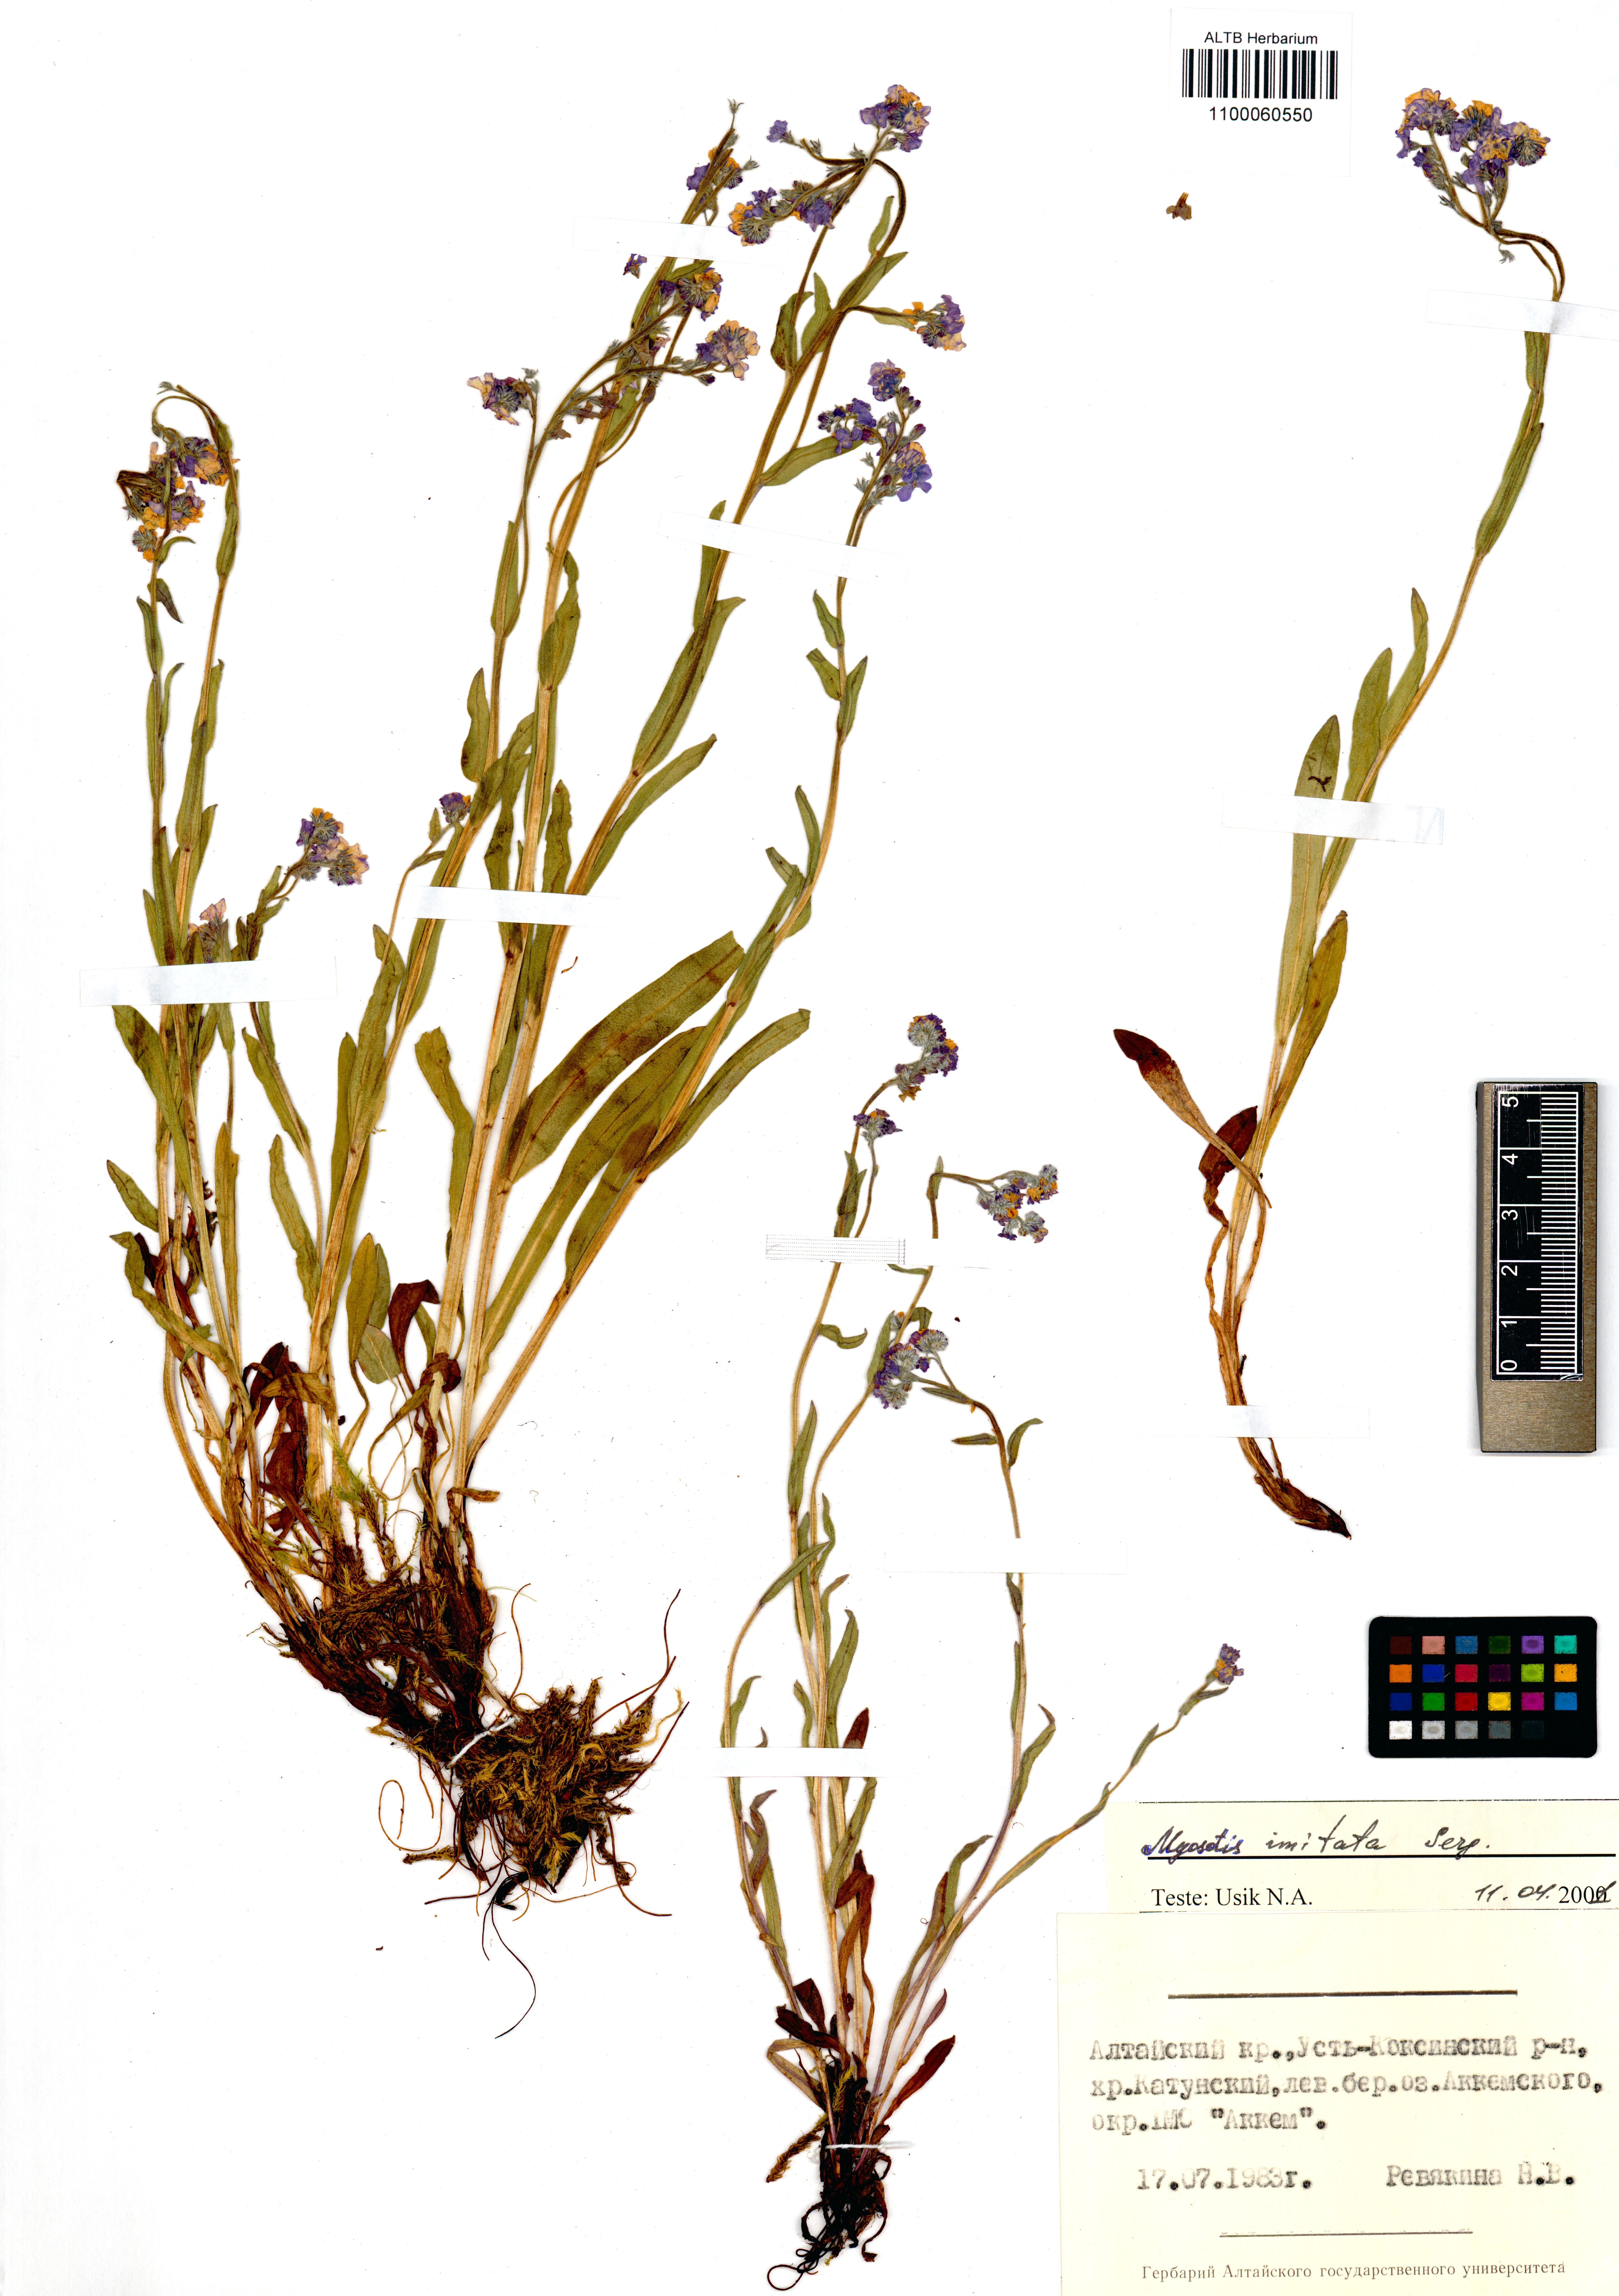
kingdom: Plantae
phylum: Tracheophyta
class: Magnoliopsida
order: Boraginales
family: Boraginaceae
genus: Myosotis
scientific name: Myosotis imitata
